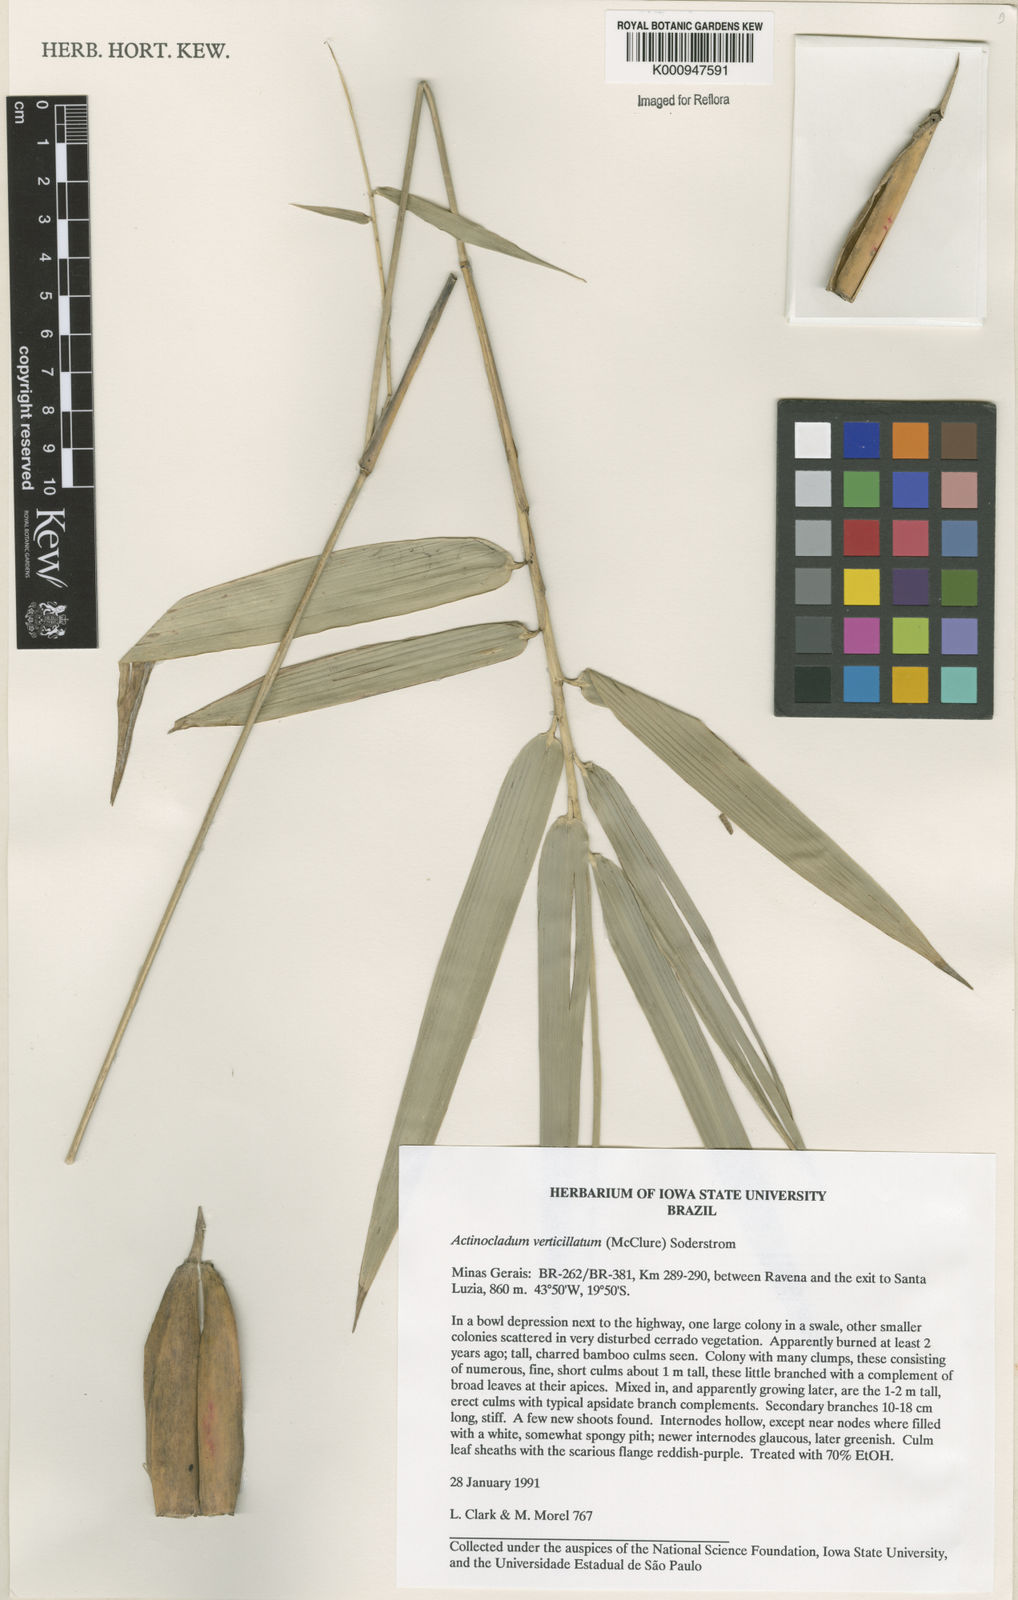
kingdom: Plantae
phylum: Tracheophyta
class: Liliopsida
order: Poales
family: Poaceae
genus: Actinocladum
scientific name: Actinocladum verticillatum
